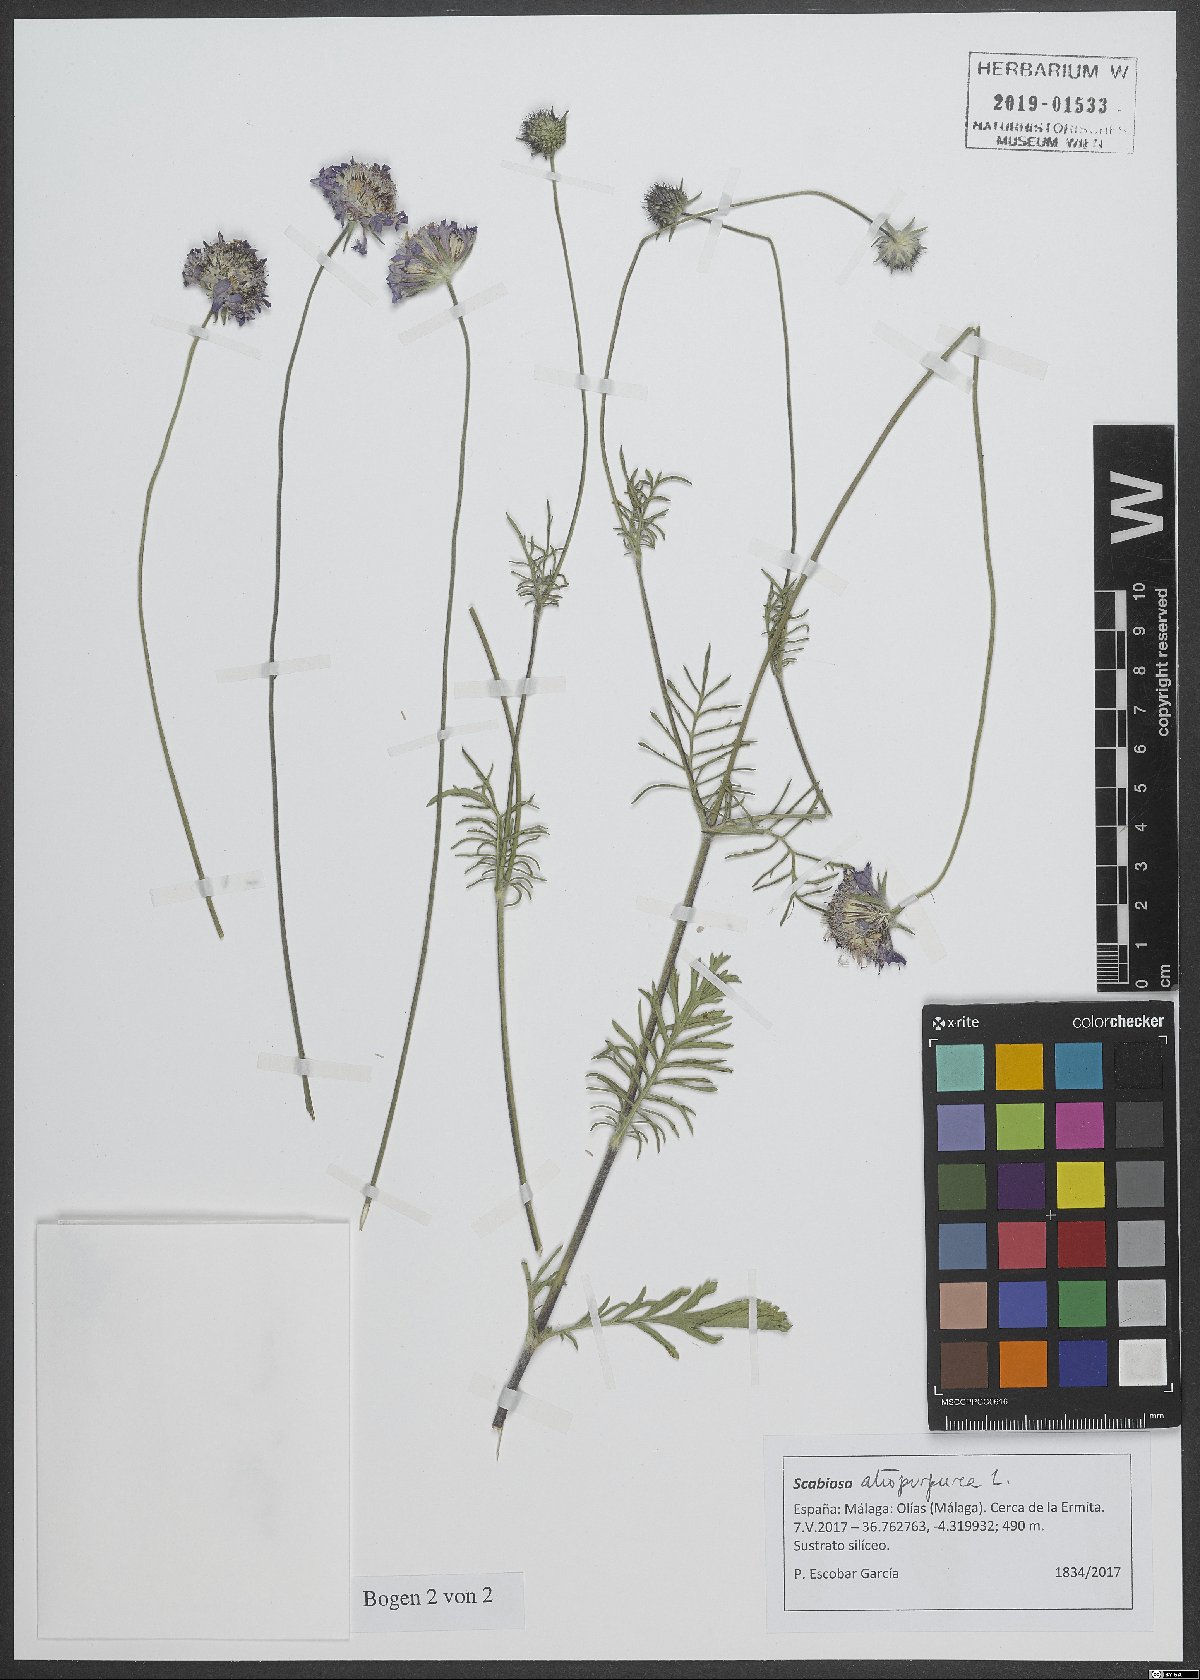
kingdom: Plantae
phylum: Tracheophyta
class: Magnoliopsida
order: Dipsacales
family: Caprifoliaceae
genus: Sixalix
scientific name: Sixalix atropurpurea
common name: Sweet scabious
